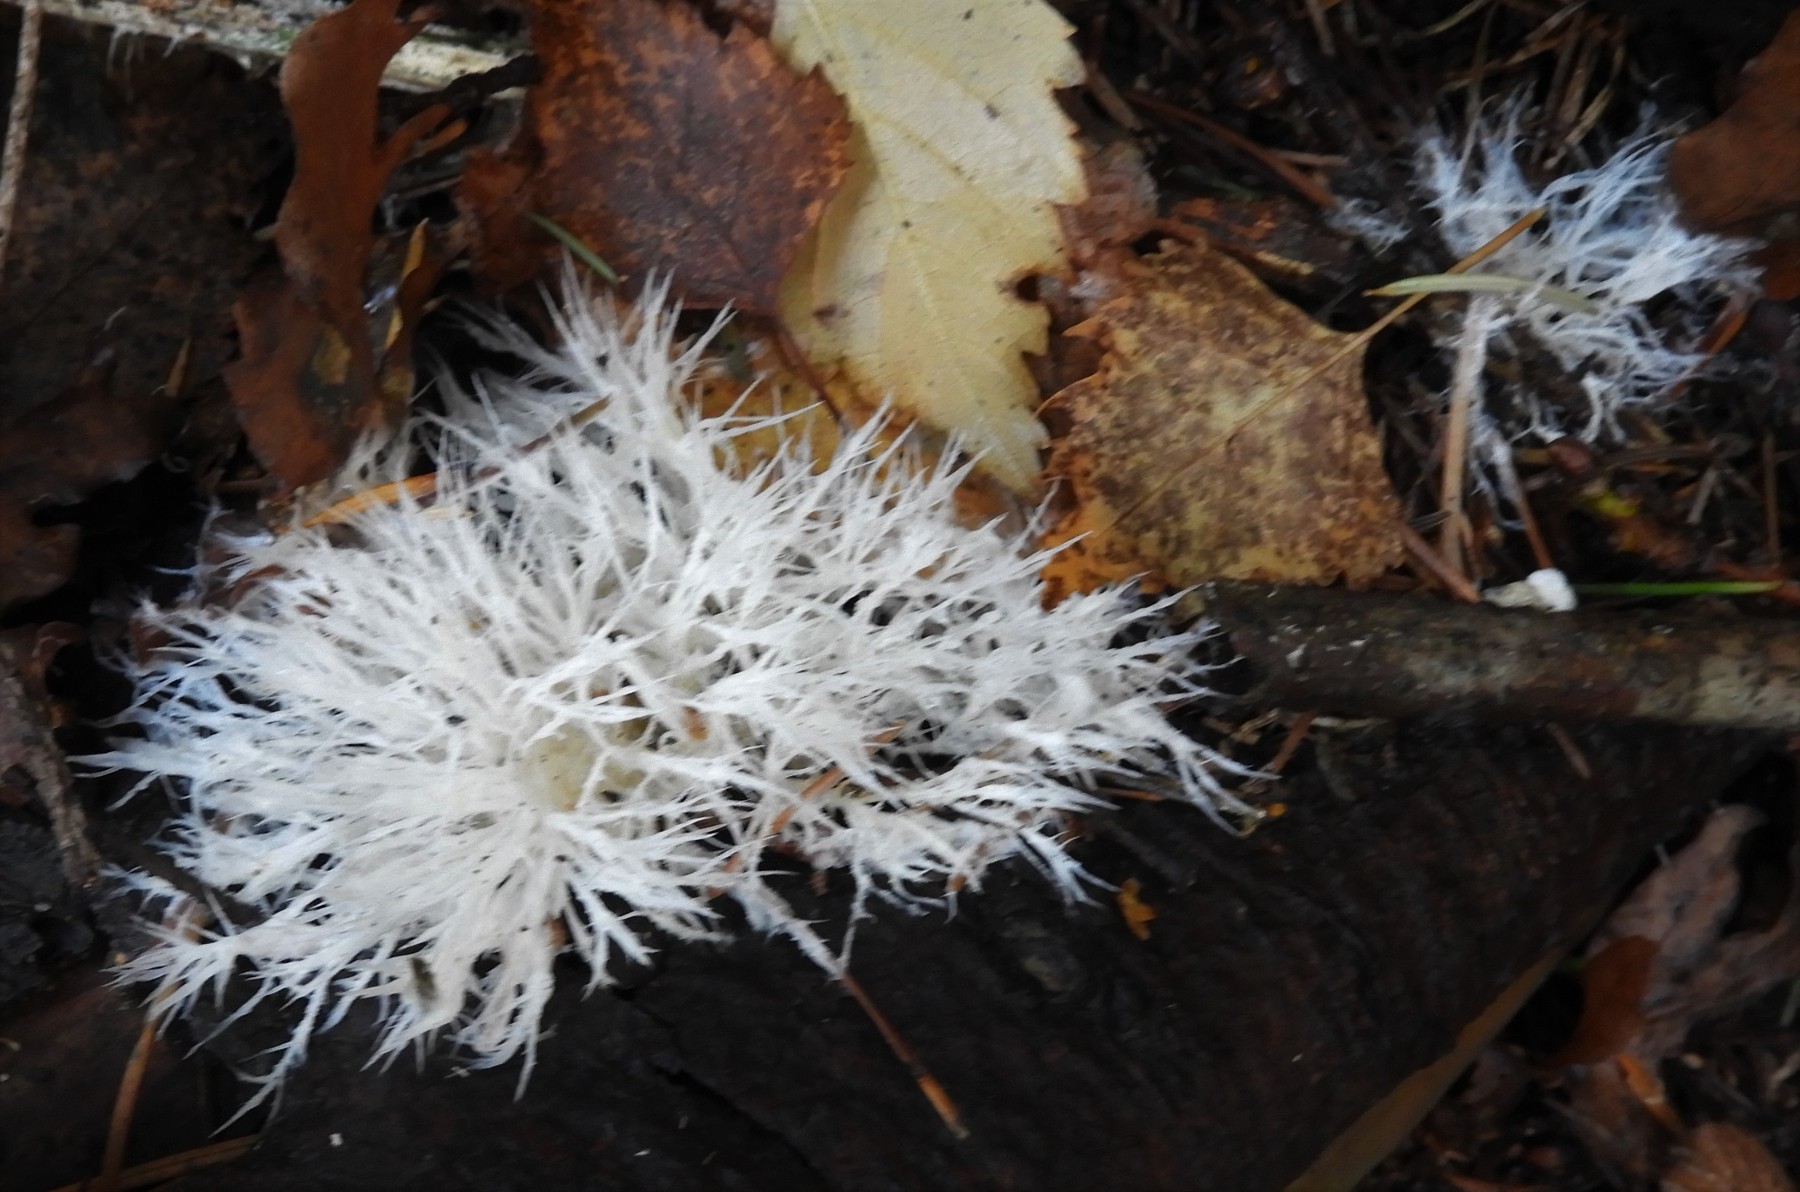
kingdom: Fungi
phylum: Basidiomycota
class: Agaricomycetes
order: Agaricales
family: Pterulaceae
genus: Pterula
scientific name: Pterula multifida
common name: busket fjerkølle
